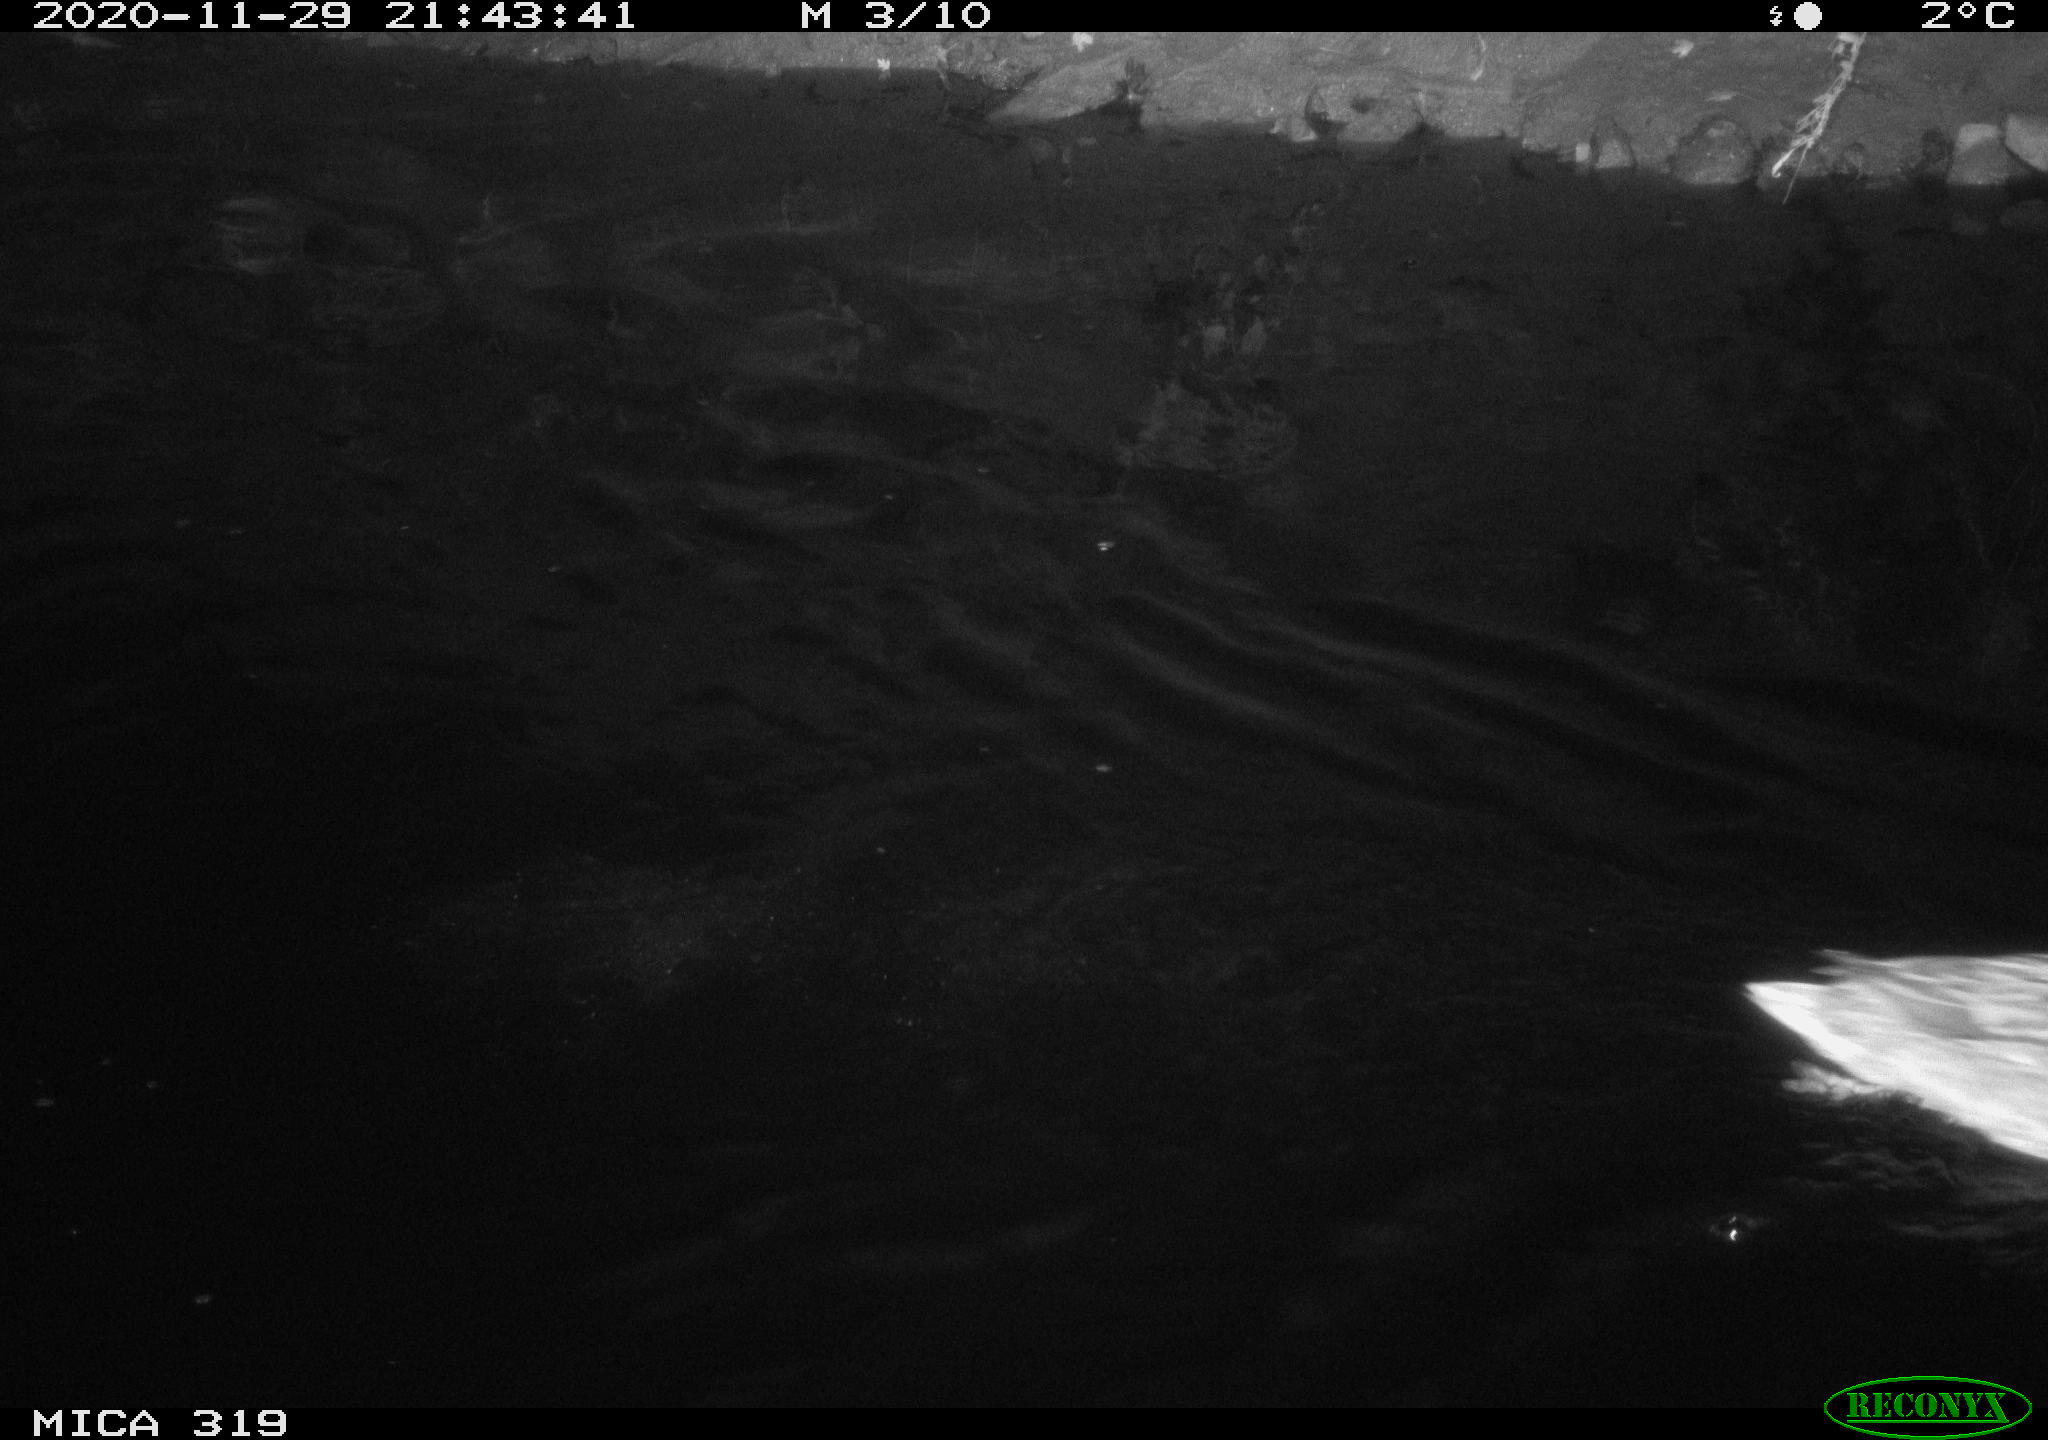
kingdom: Animalia
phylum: Chordata
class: Aves
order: Anseriformes
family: Anatidae
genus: Anas
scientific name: Anas platyrhynchos
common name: Mallard
